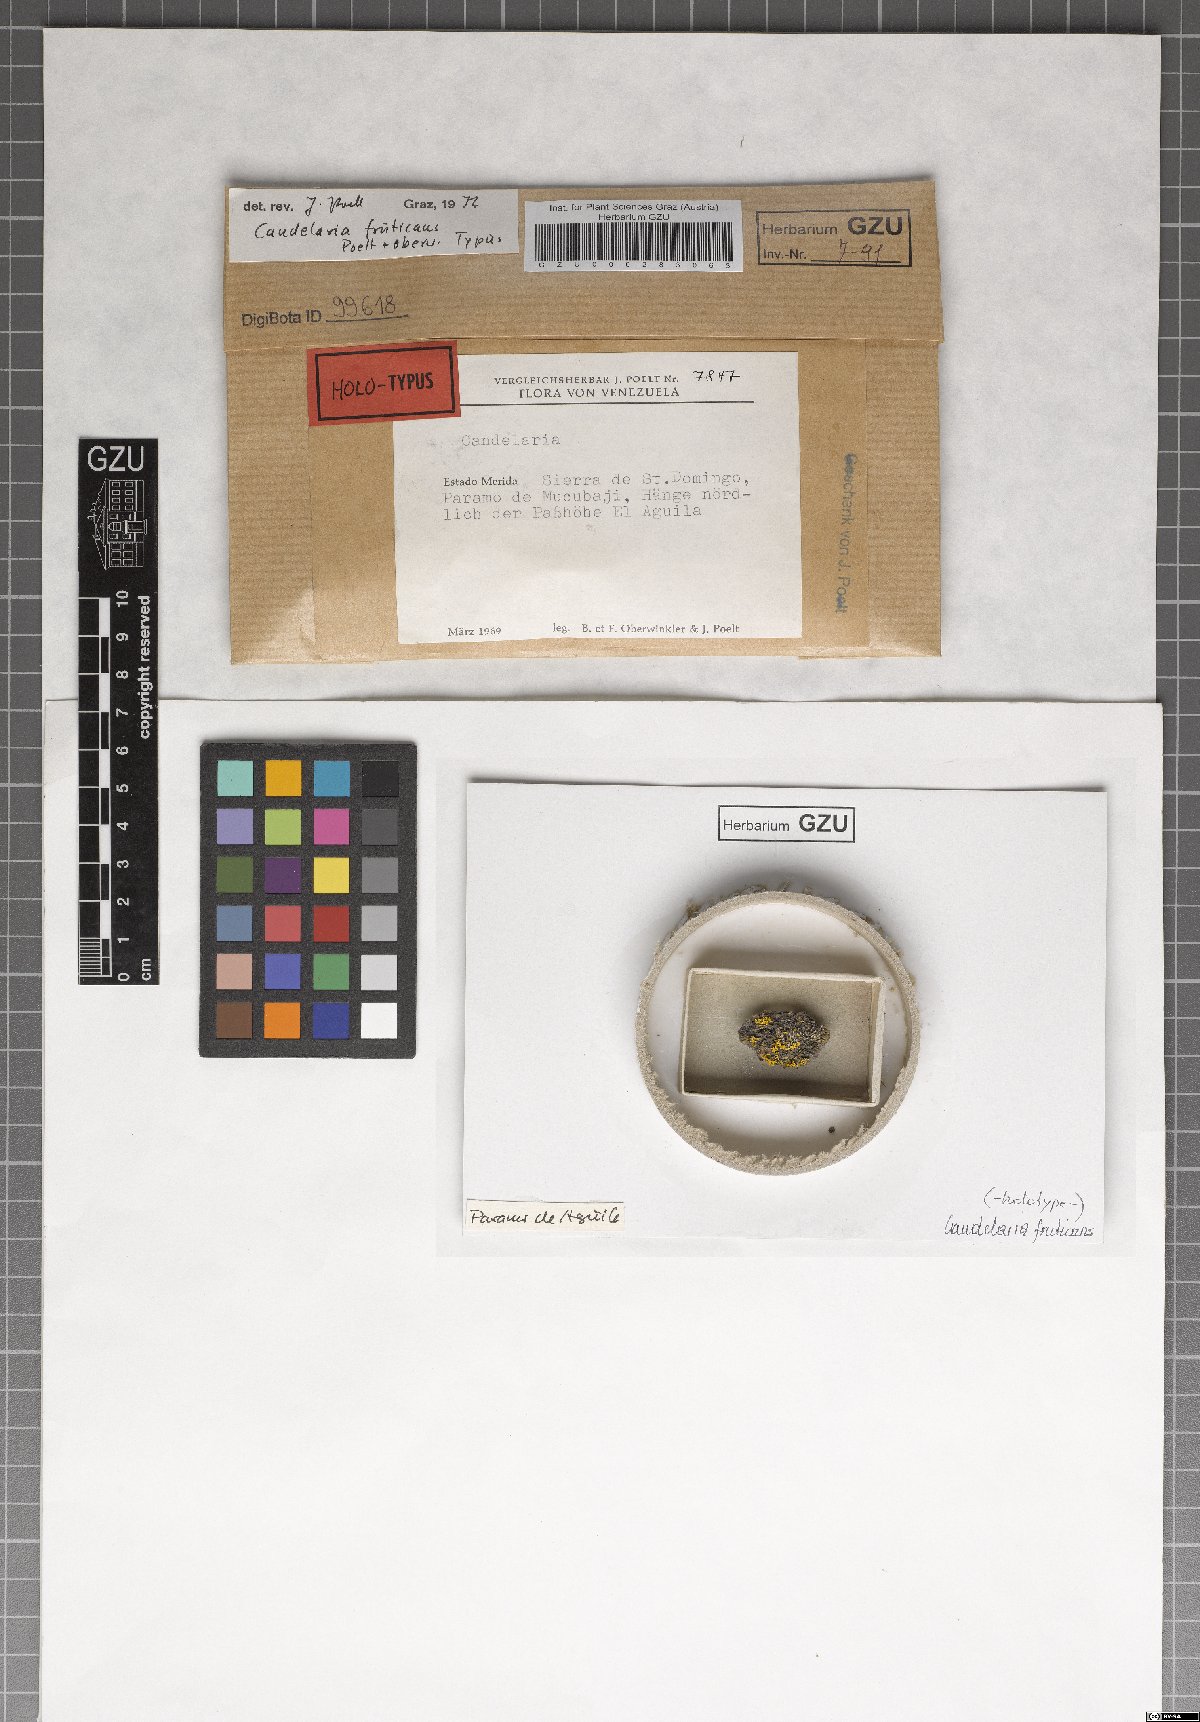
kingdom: Fungi
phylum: Ascomycota
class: Candelariomycetes
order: Candelariales
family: Candelariaceae
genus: Opeltiella
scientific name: Opeltiella fruticans
